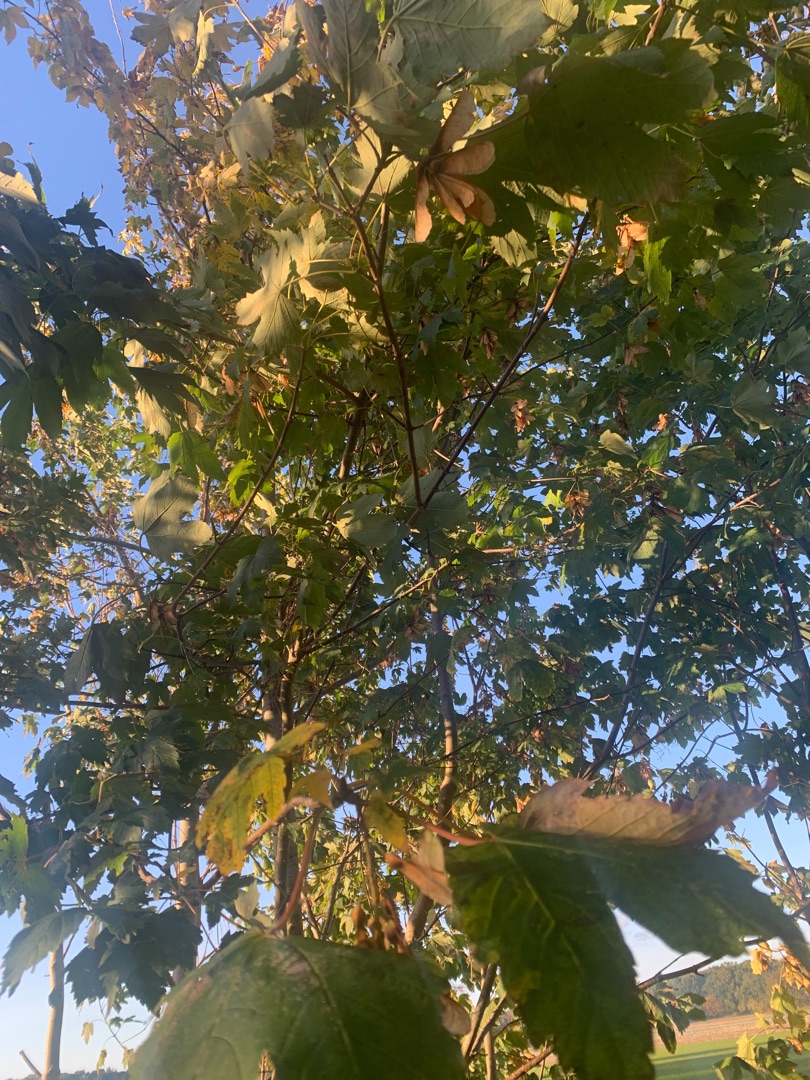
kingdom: Plantae
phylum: Tracheophyta
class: Magnoliopsida
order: Sapindales
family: Sapindaceae
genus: Acer
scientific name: Acer pseudoplatanus
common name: Ahorn
